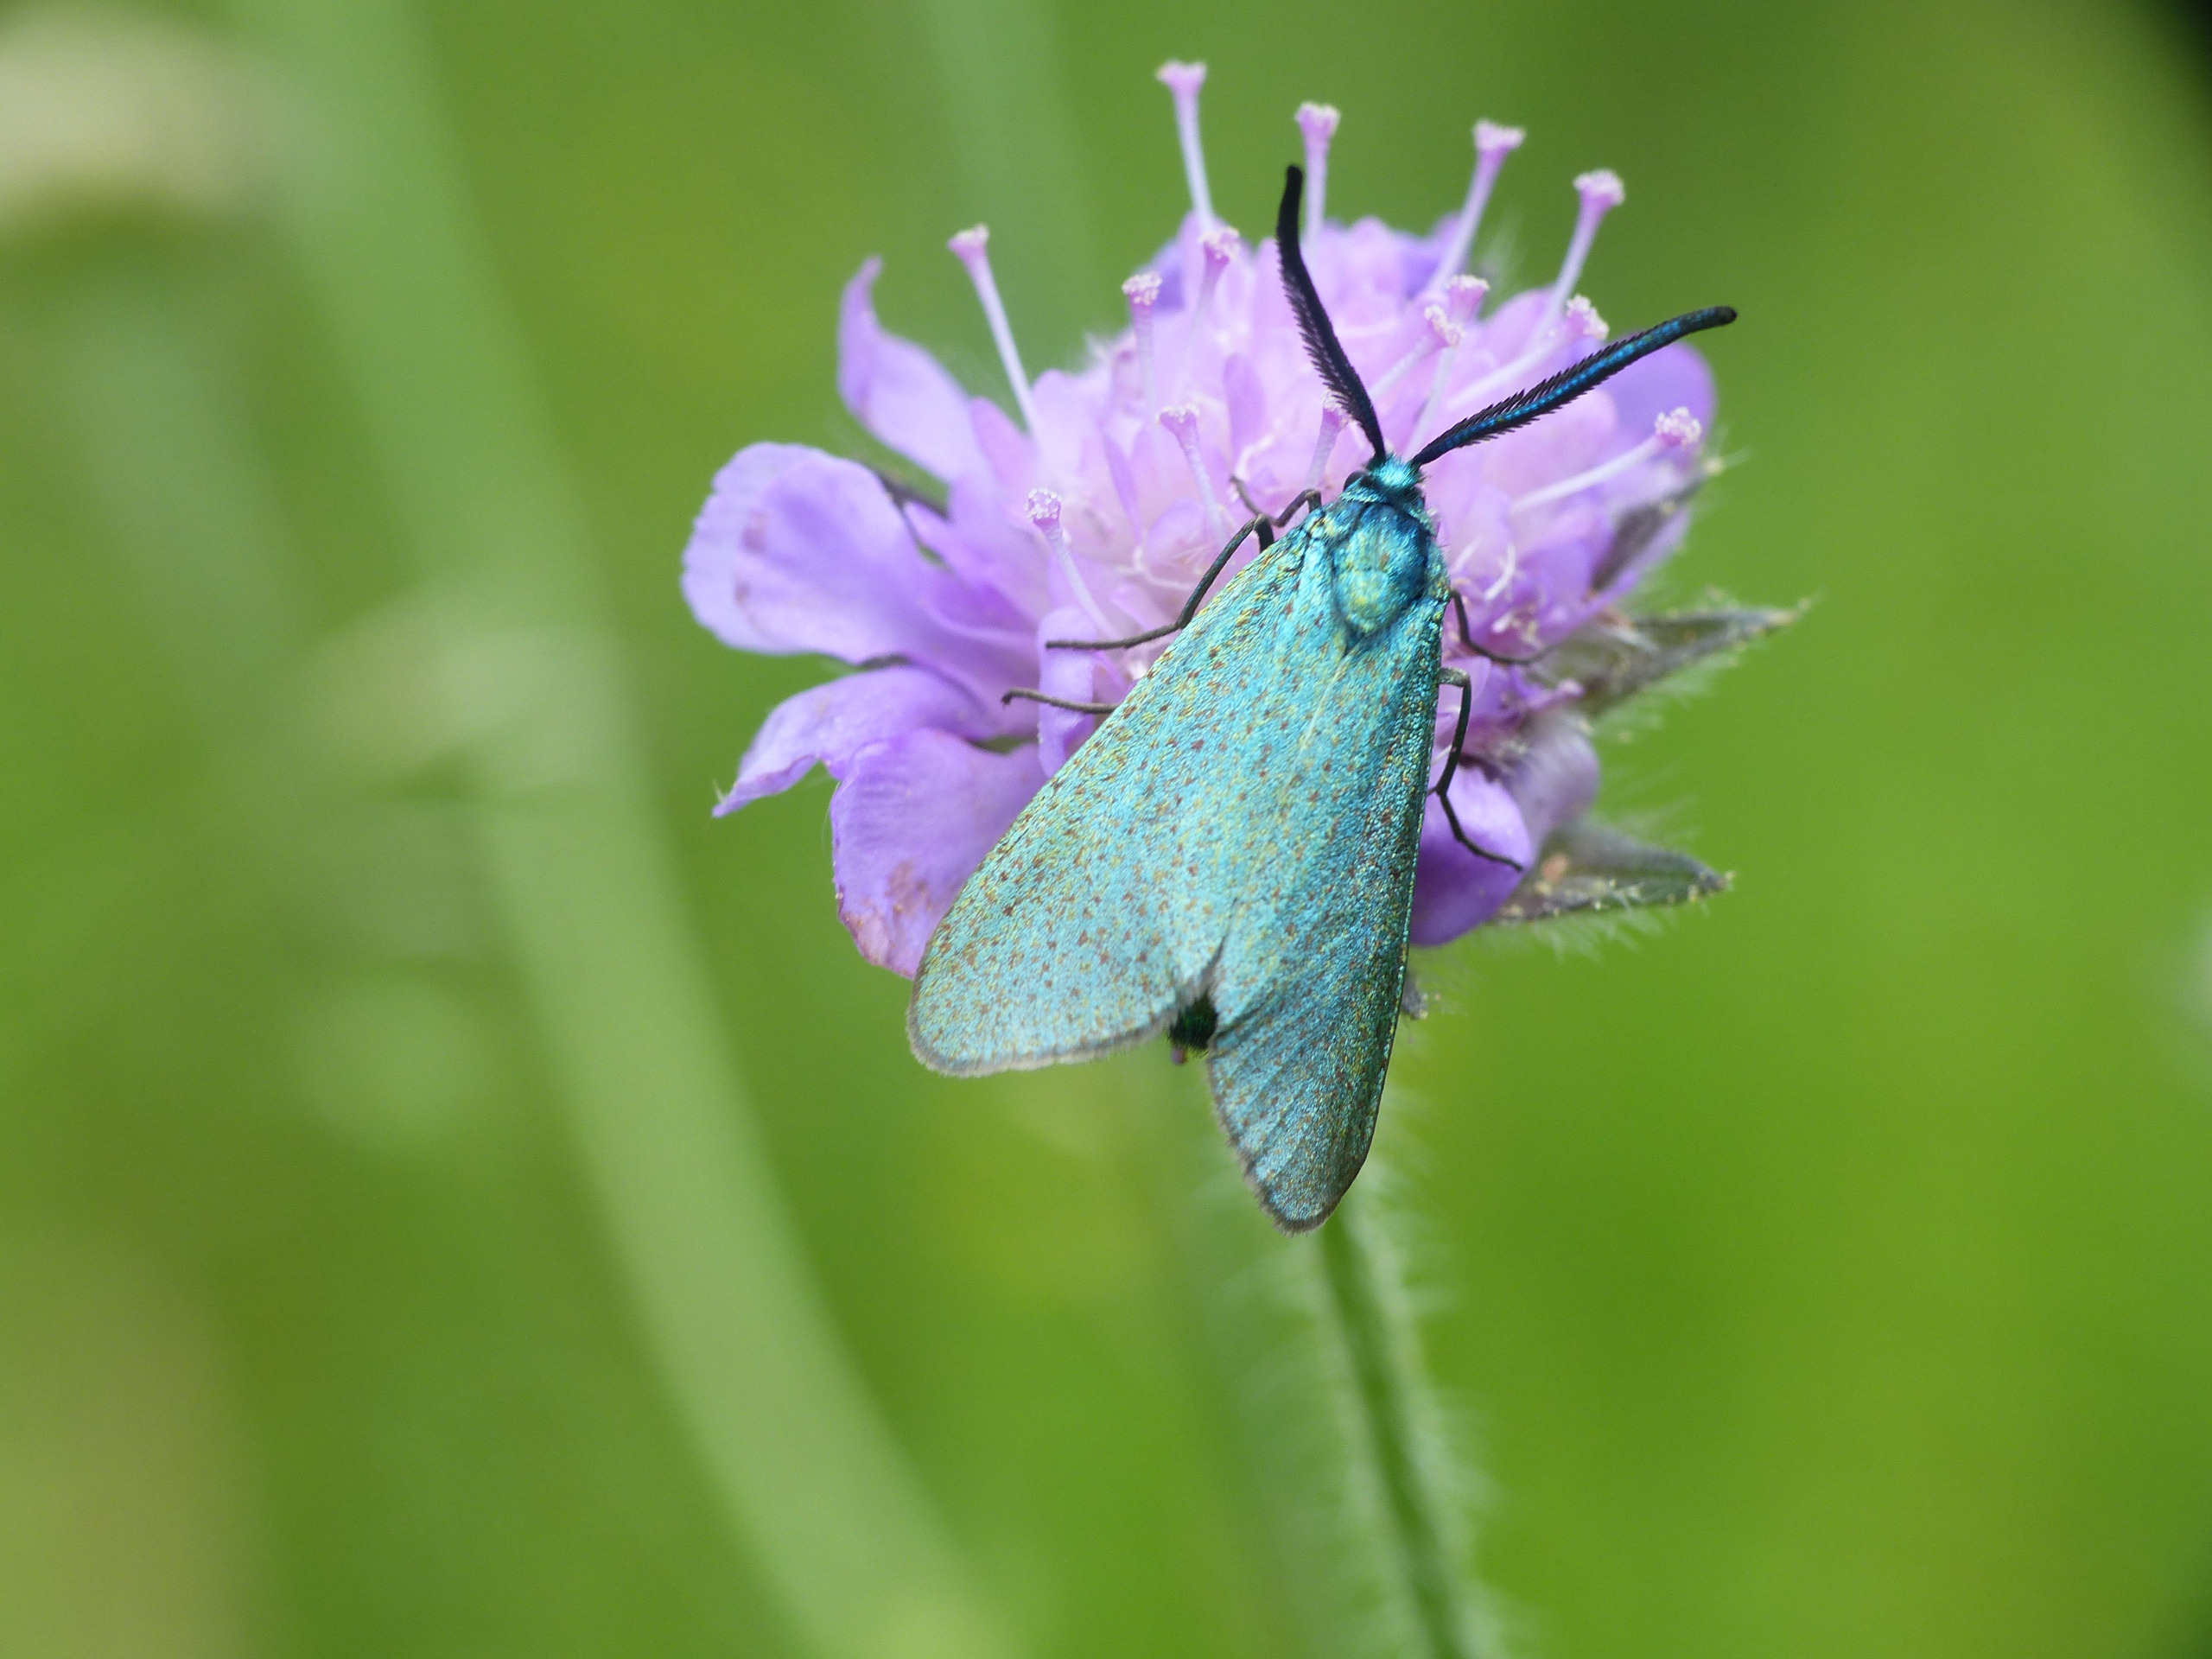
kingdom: Animalia
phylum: Arthropoda
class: Insecta
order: Lepidoptera
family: Zygaenidae
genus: Adscita
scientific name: Adscita statices
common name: Metalvinge
